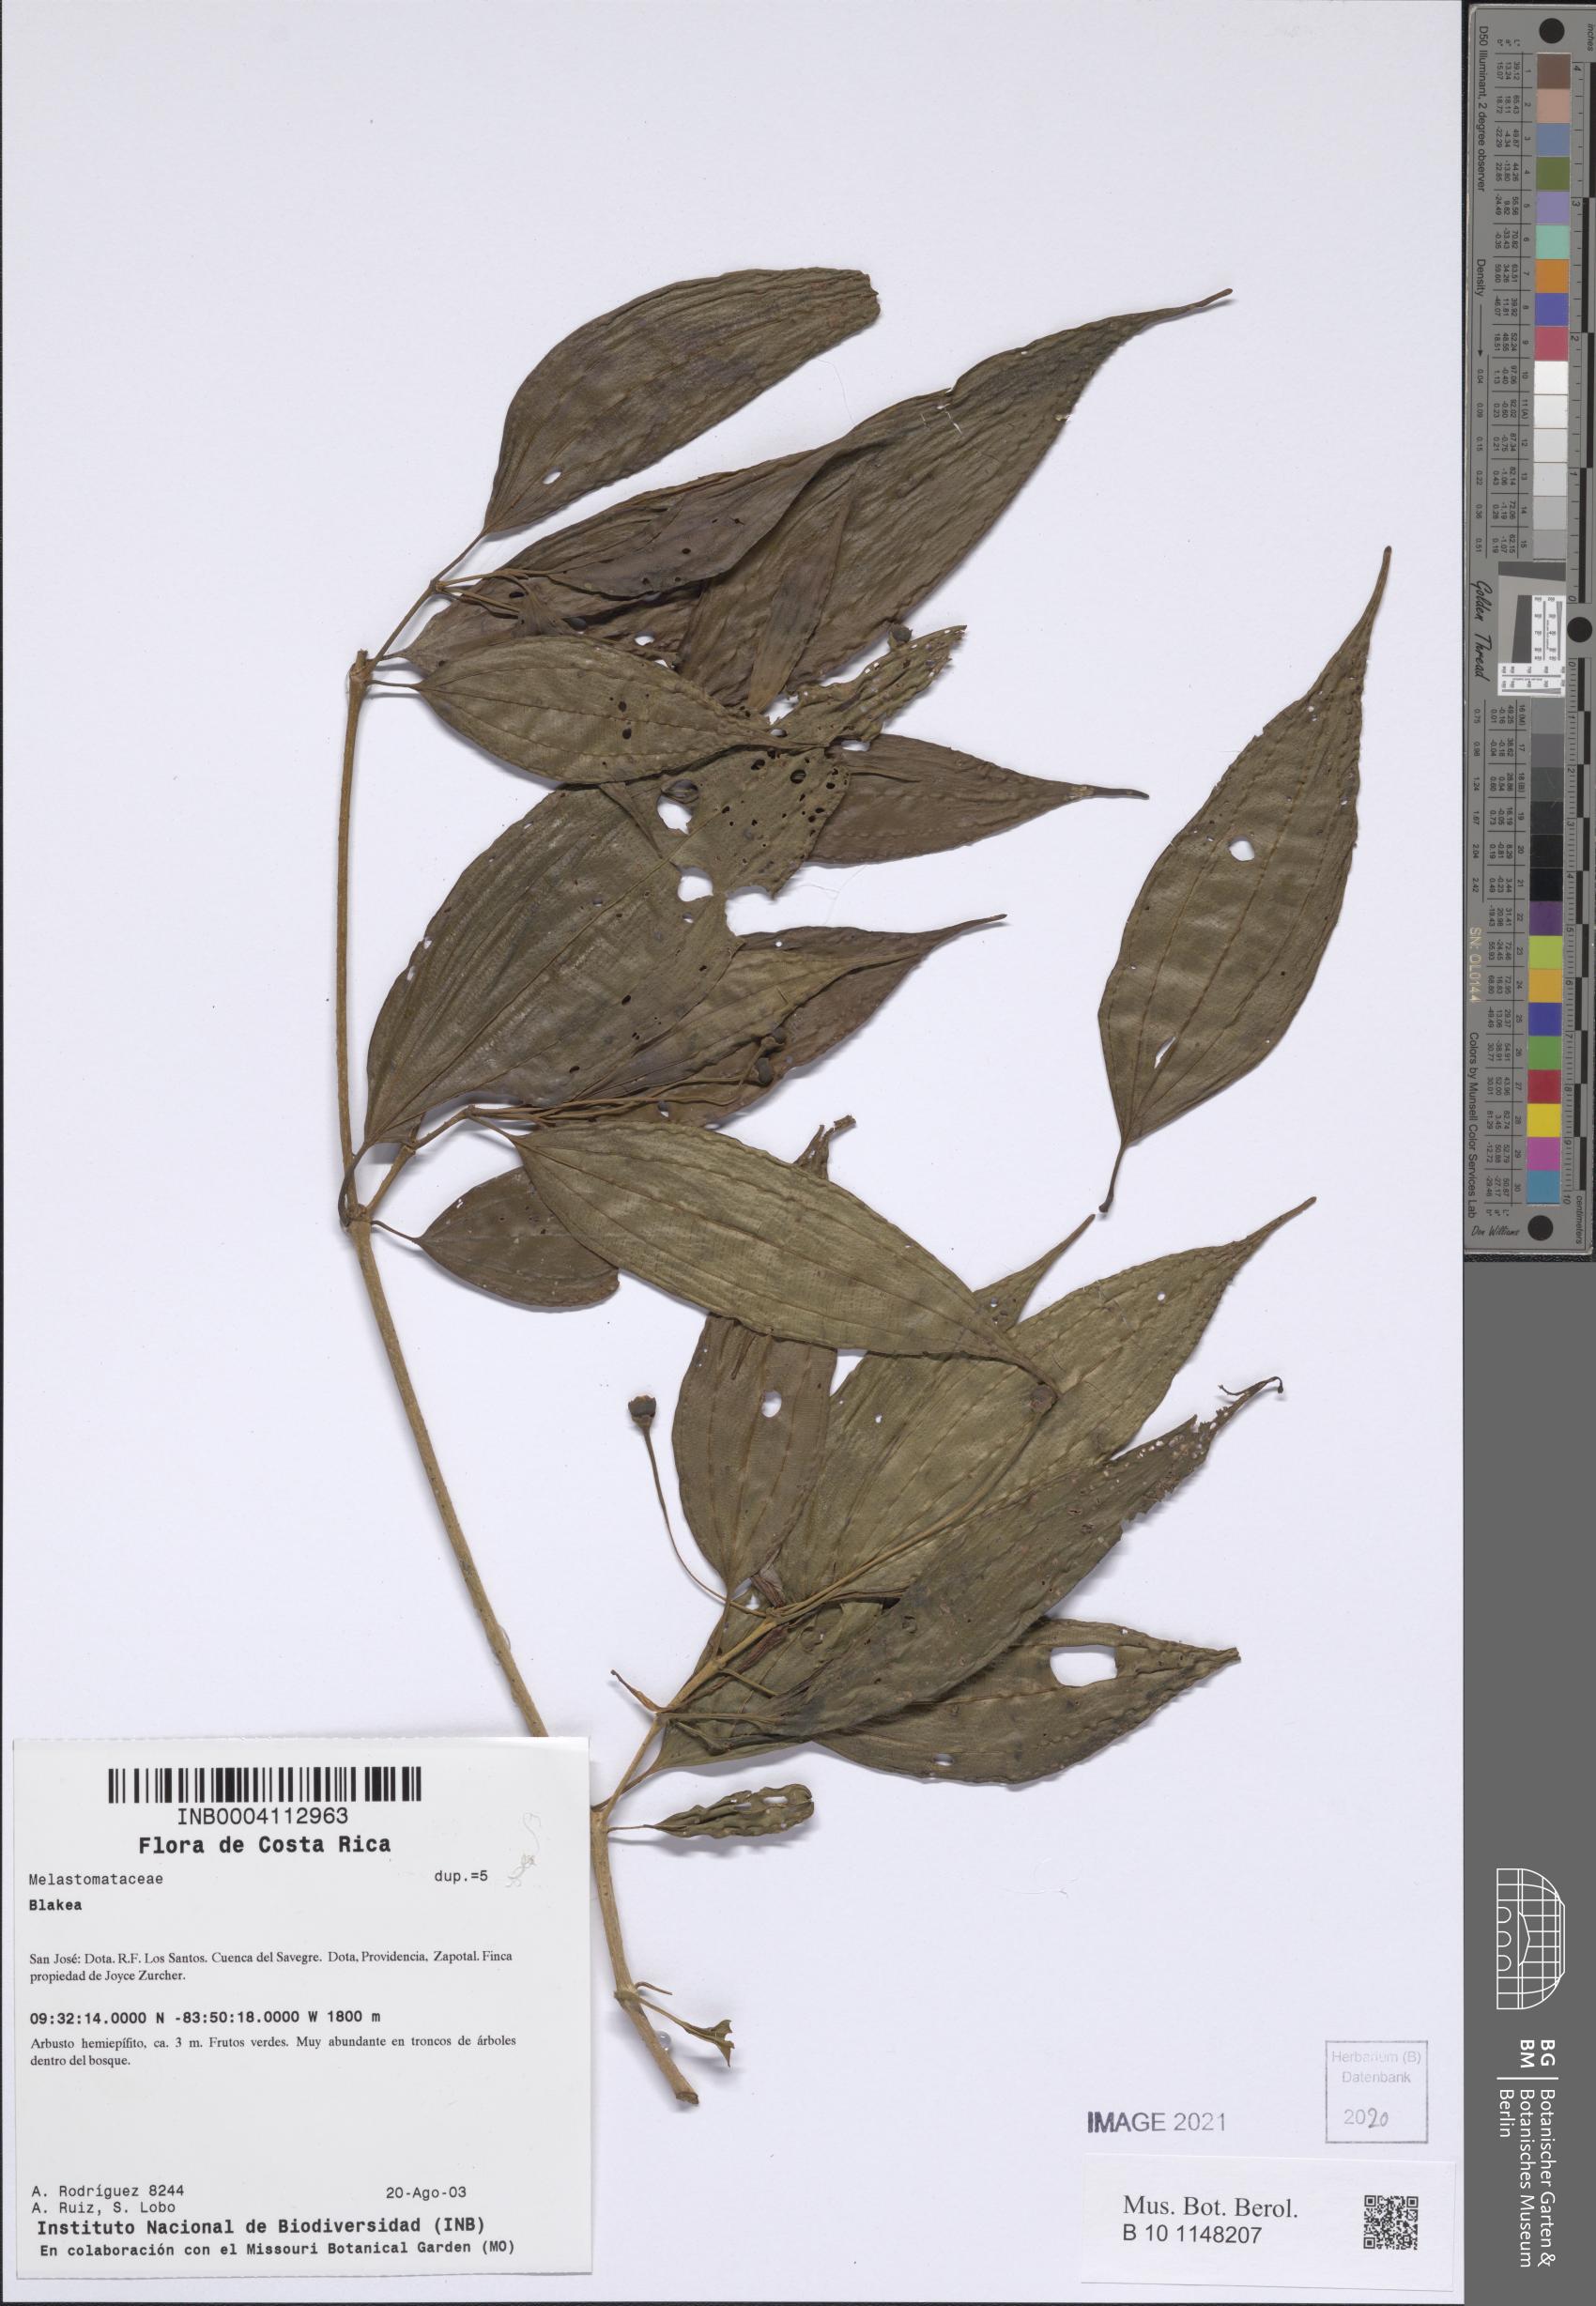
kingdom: Plantae
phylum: Tracheophyta
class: Magnoliopsida
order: Myrtales
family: Melastomataceae
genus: Blakea
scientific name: Blakea
